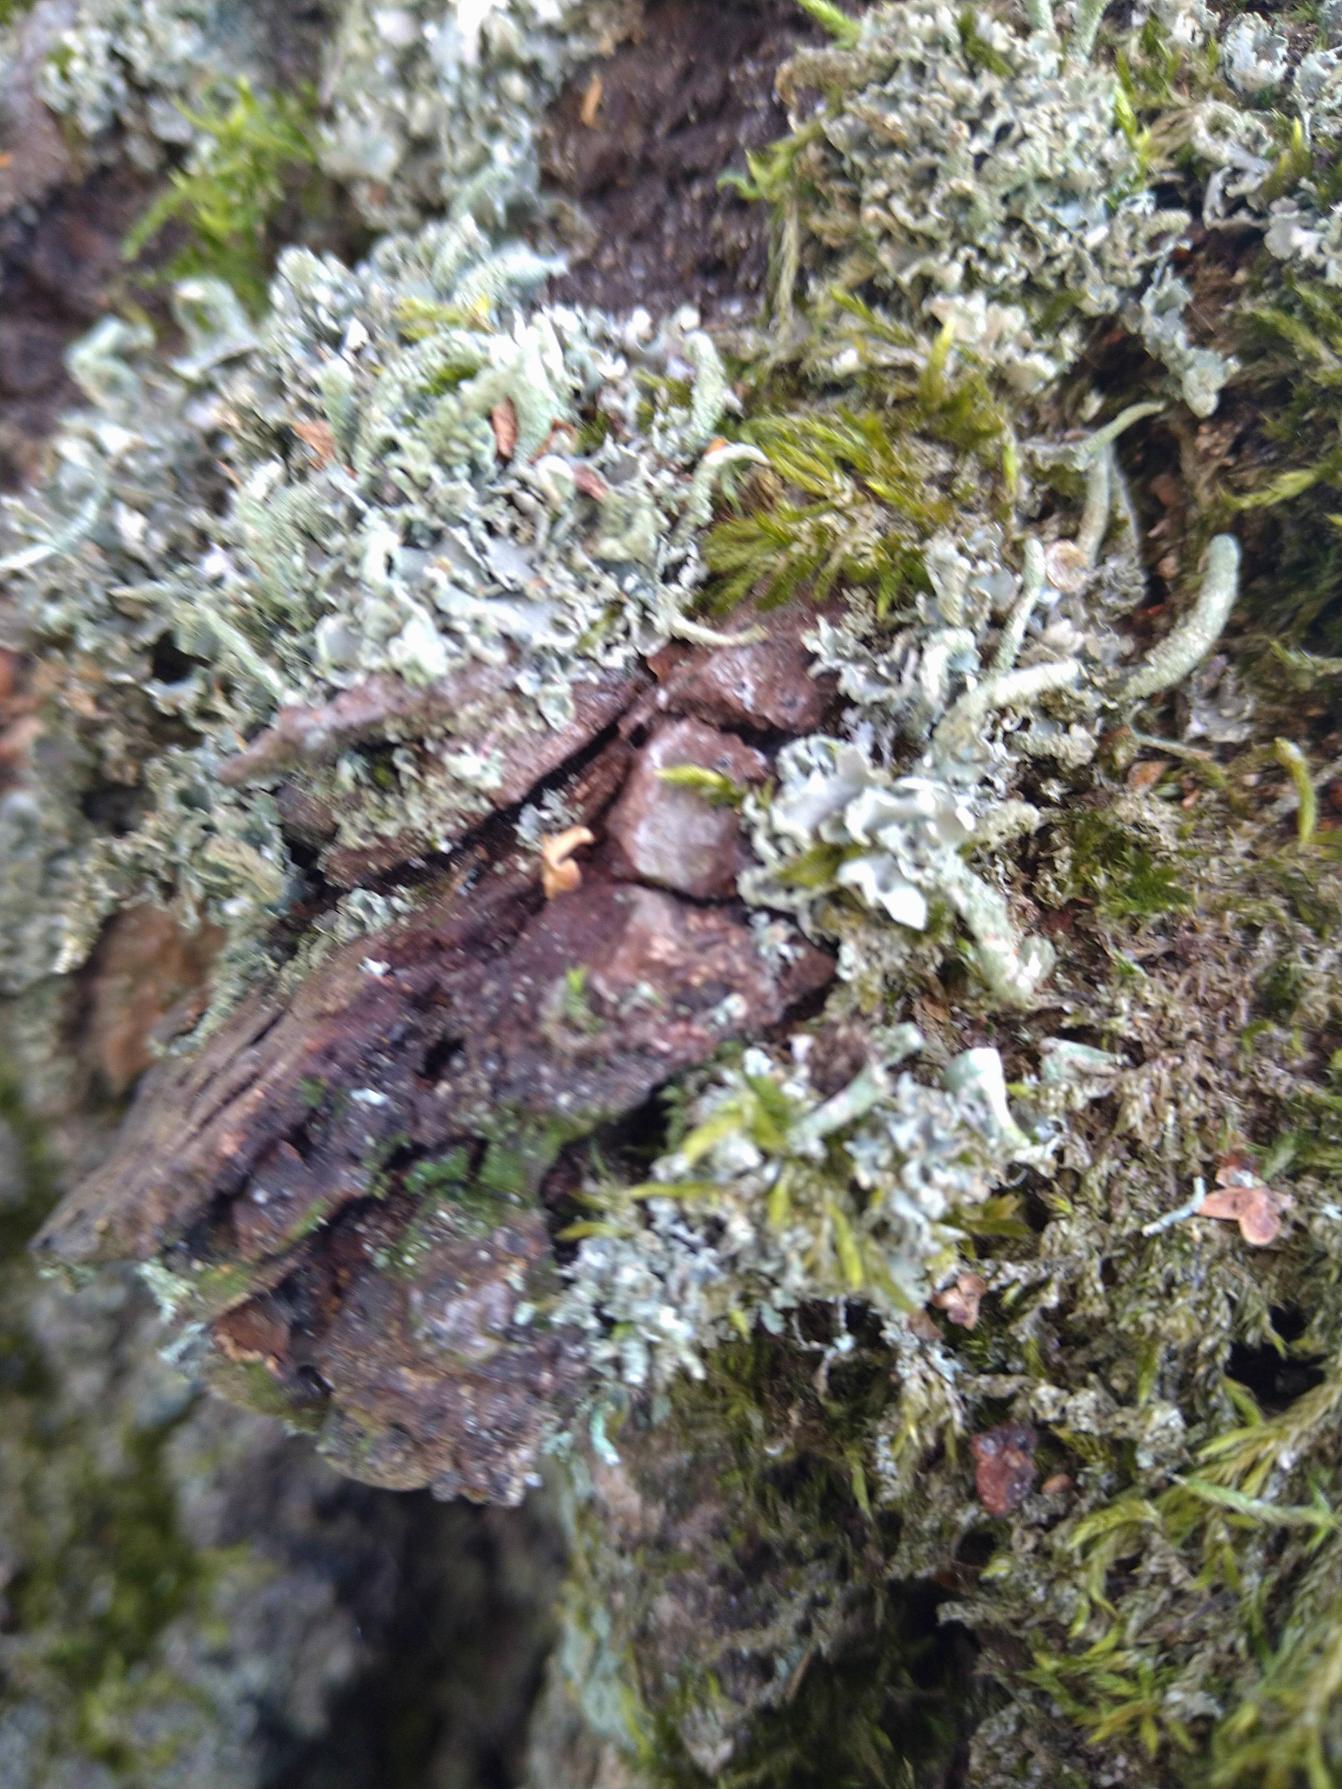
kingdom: Fungi
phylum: Ascomycota
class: Lecanoromycetes
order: Lecanorales
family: Cladoniaceae
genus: Cladonia
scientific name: Cladonia coniocraea
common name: Træfods-bægerlav
